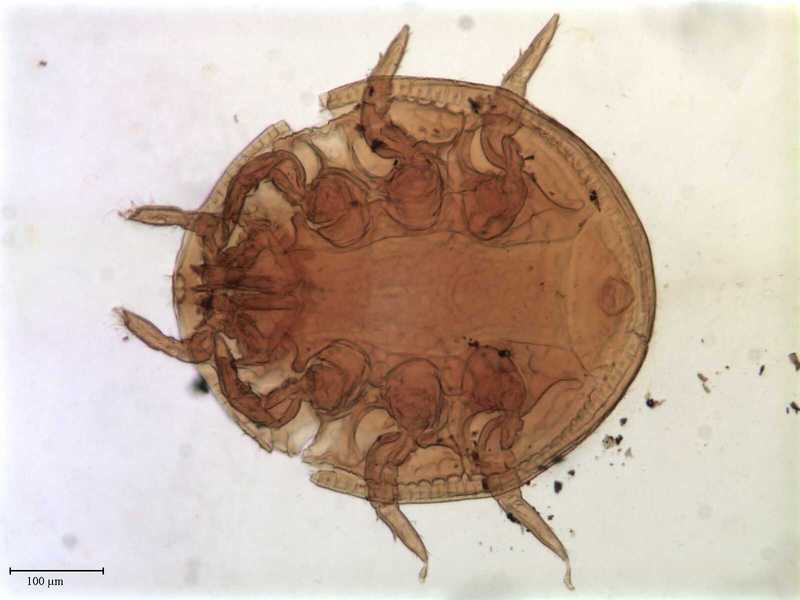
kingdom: Animalia
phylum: Arthropoda
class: Arachnida
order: Mesostigmata
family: Uropodidae
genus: Uropoda
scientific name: Uropoda
